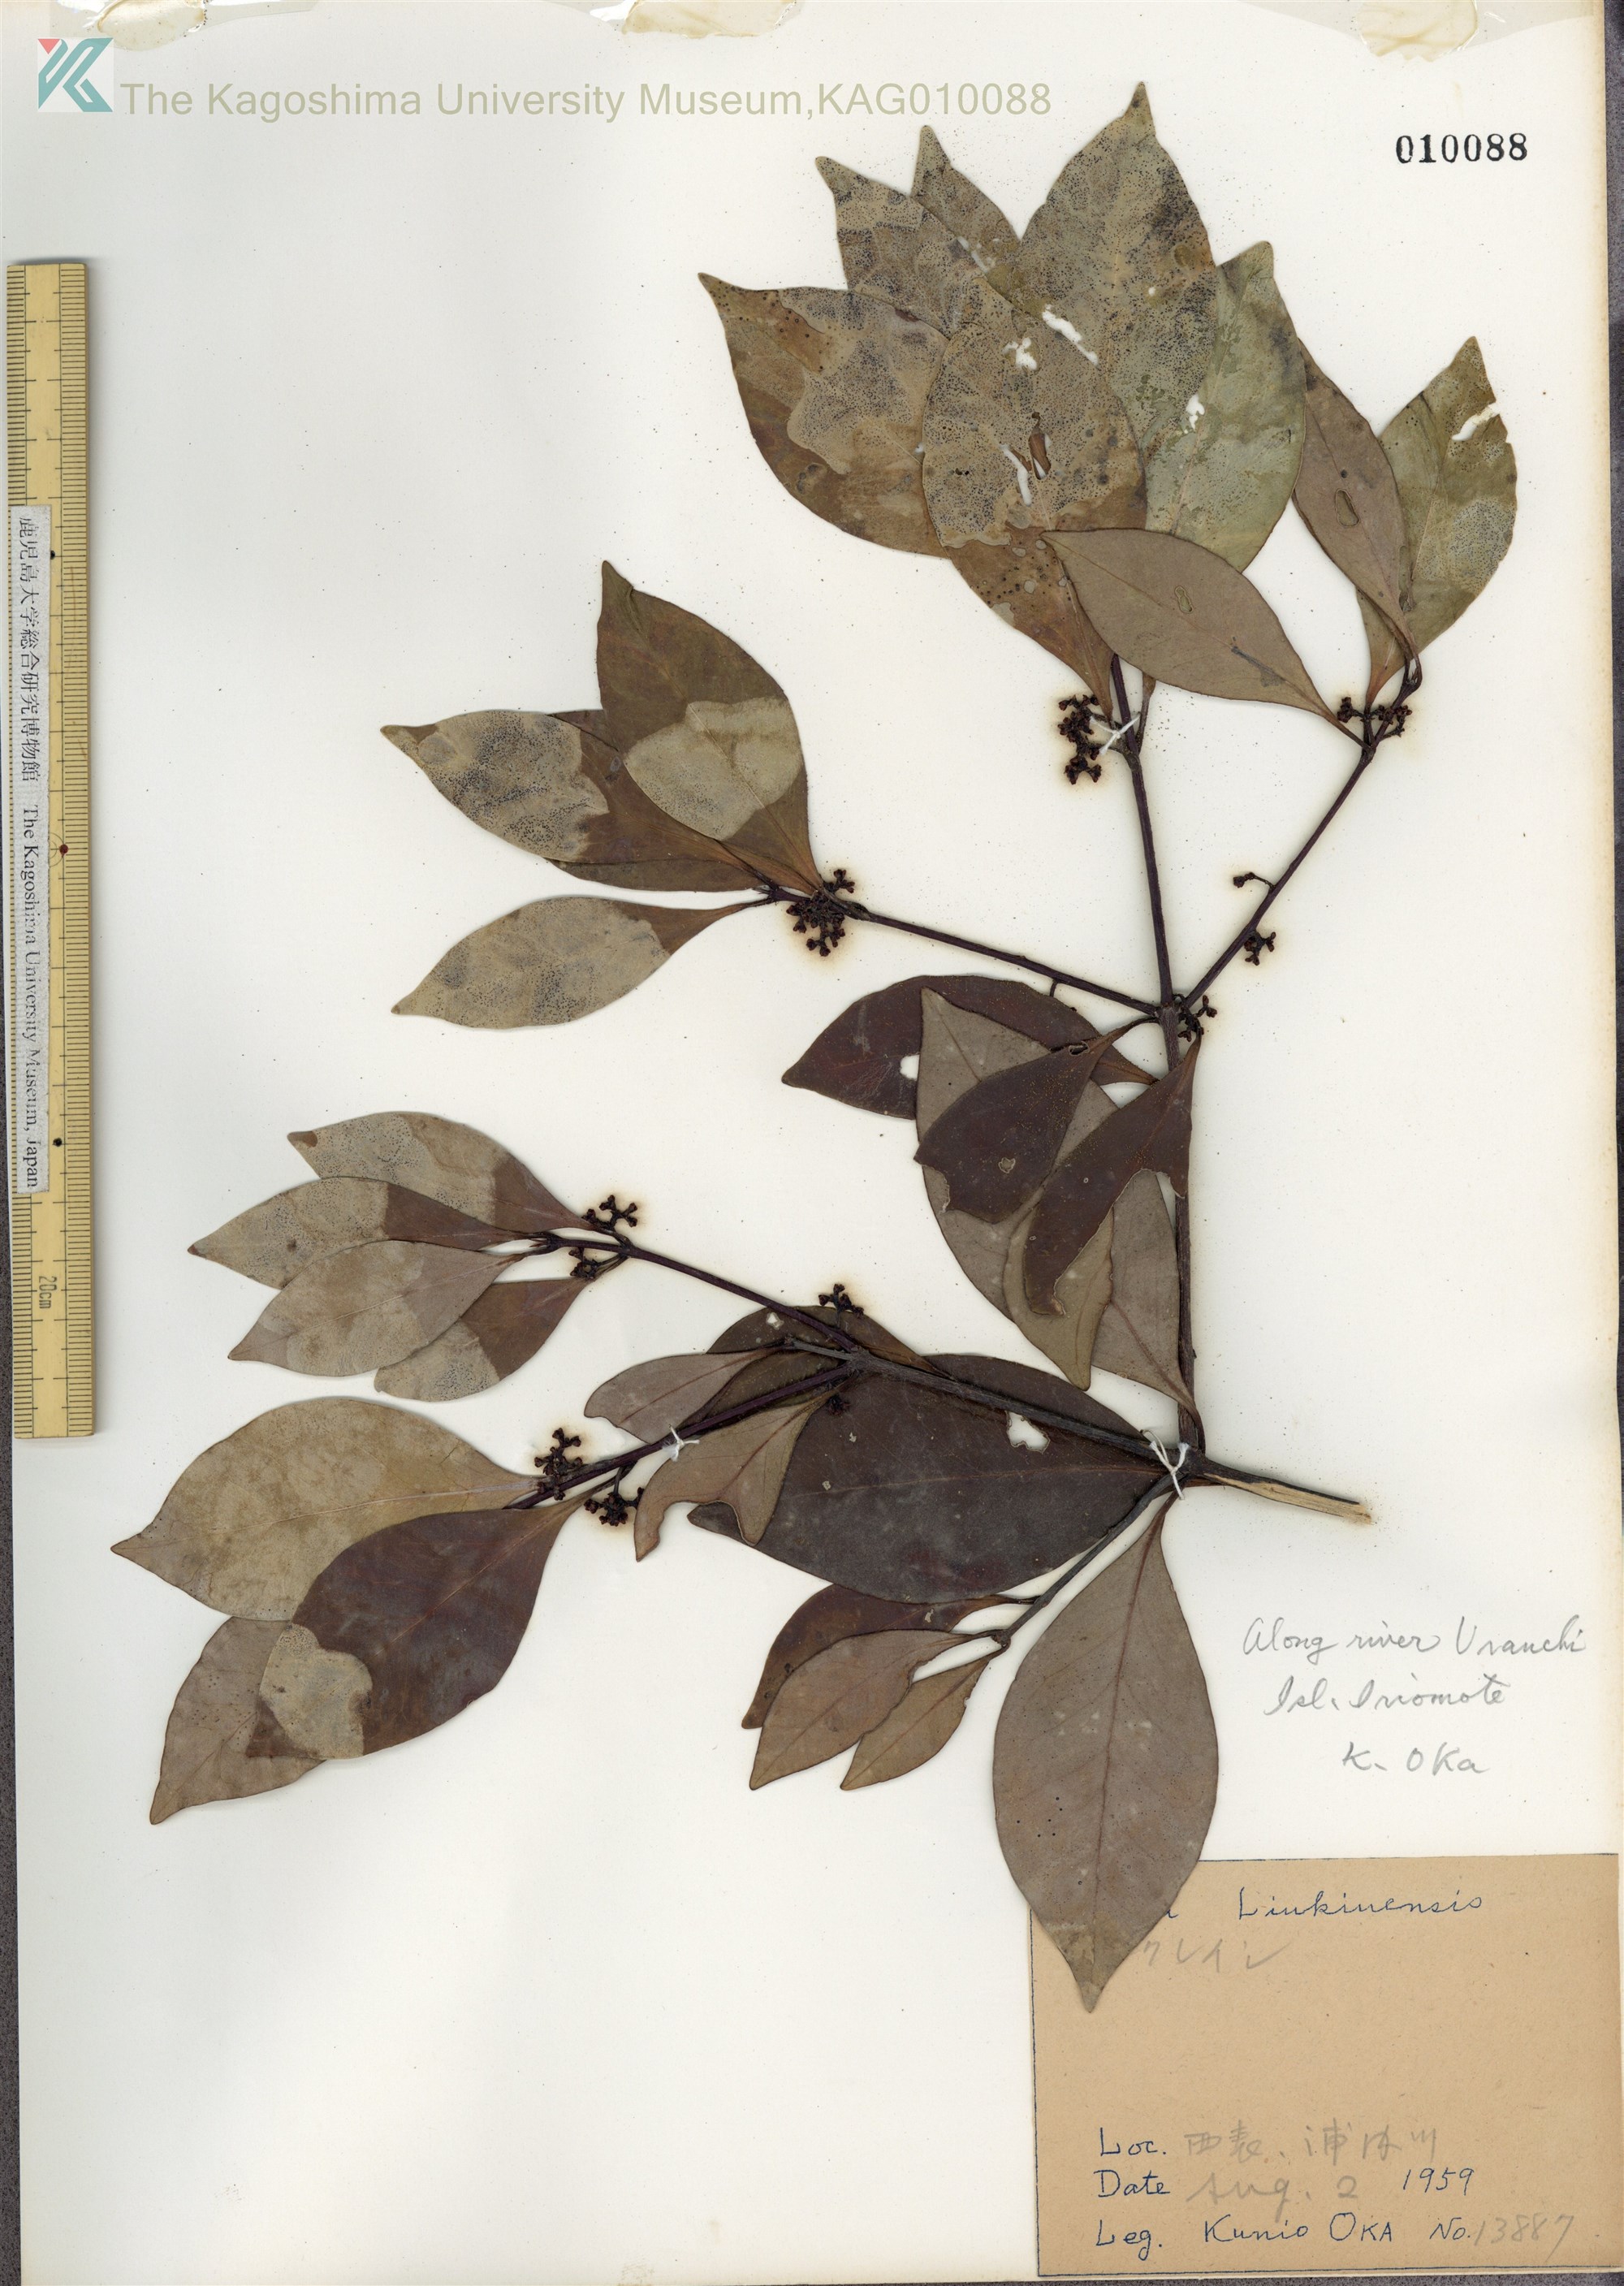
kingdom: Plantae
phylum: Tracheophyta
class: Magnoliopsida
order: Celastrales
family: Celastraceae
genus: Microtropis
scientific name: Microtropis japonica
